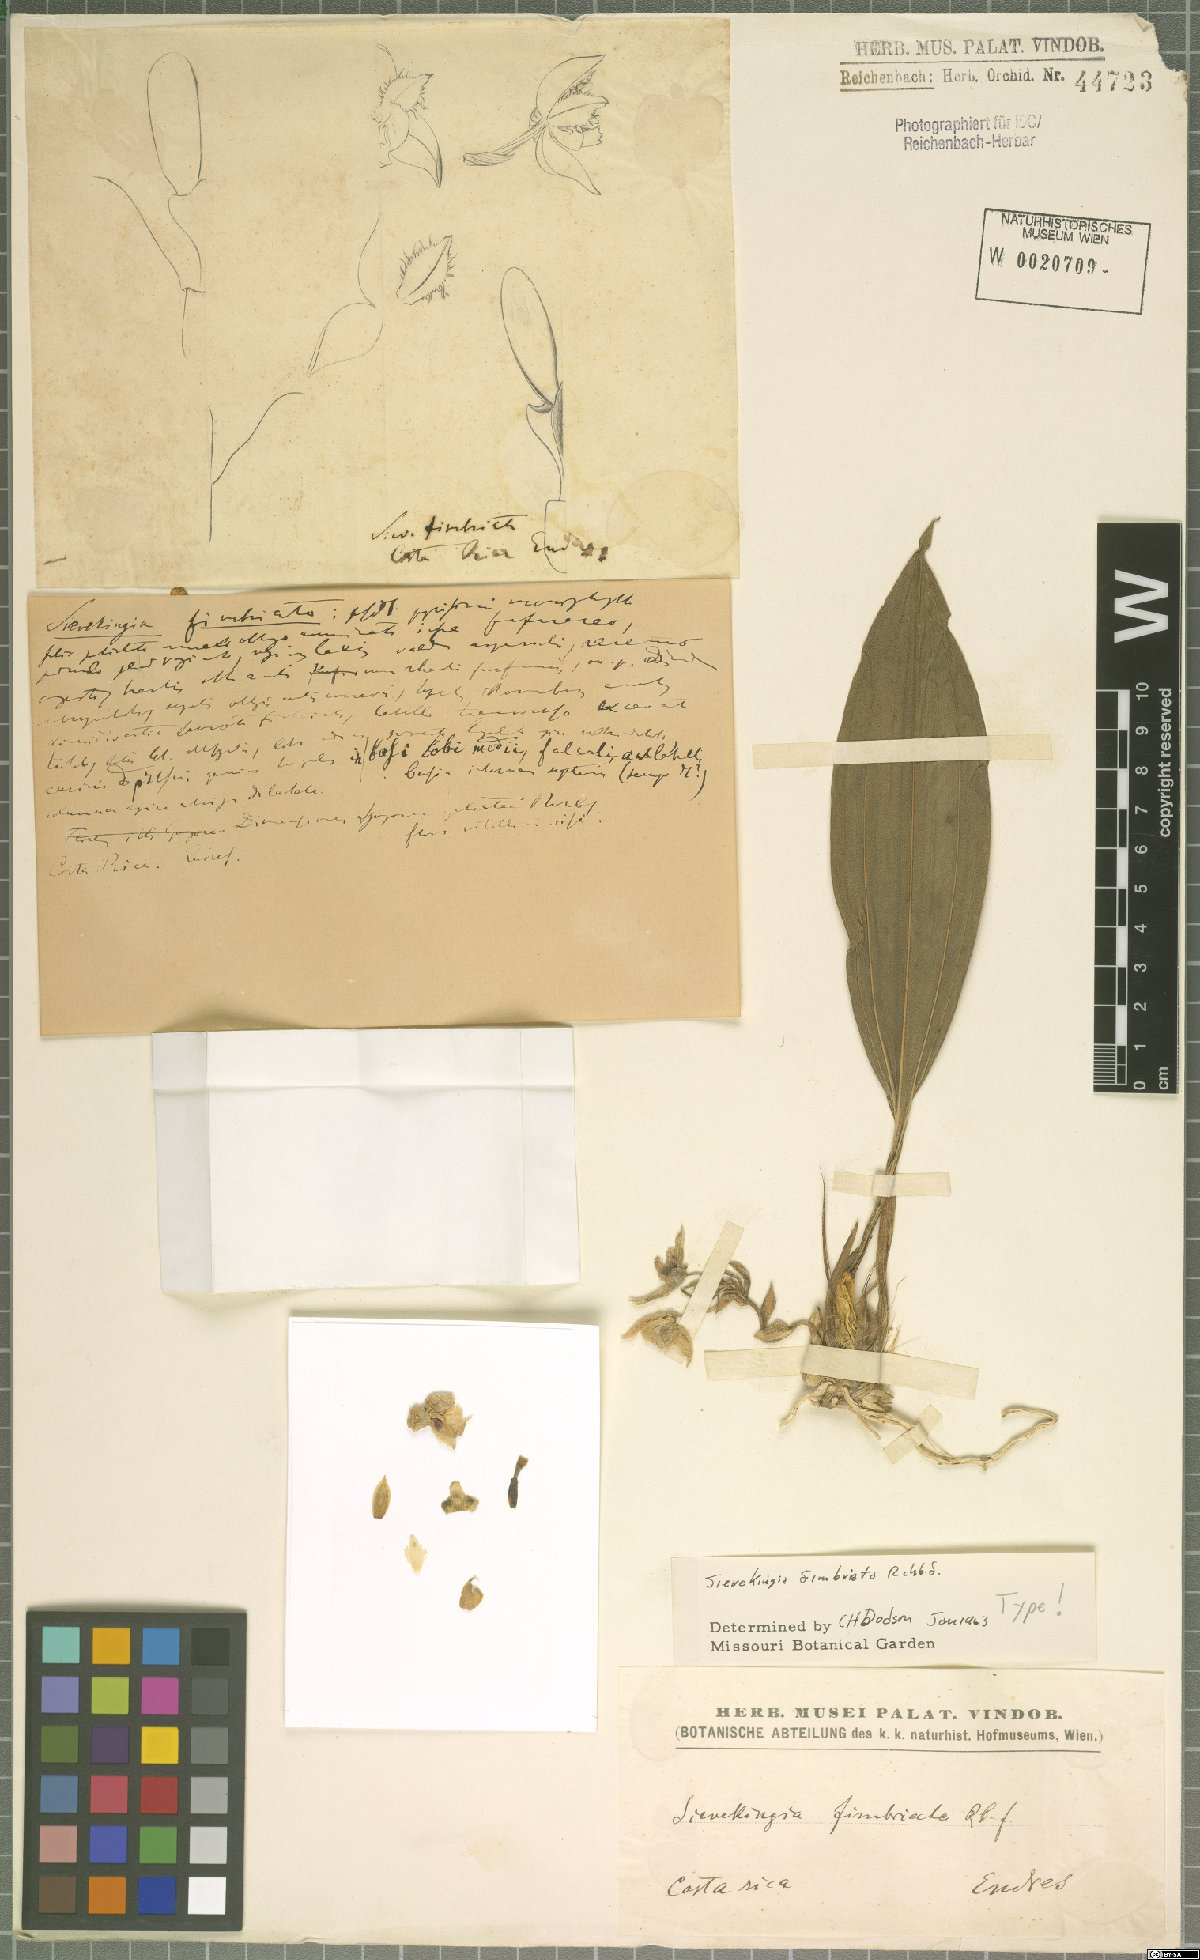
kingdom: Plantae
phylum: Tracheophyta
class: Liliopsida
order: Asparagales
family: Orchidaceae
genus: Sievekingia
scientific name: Sievekingia fimbriata
